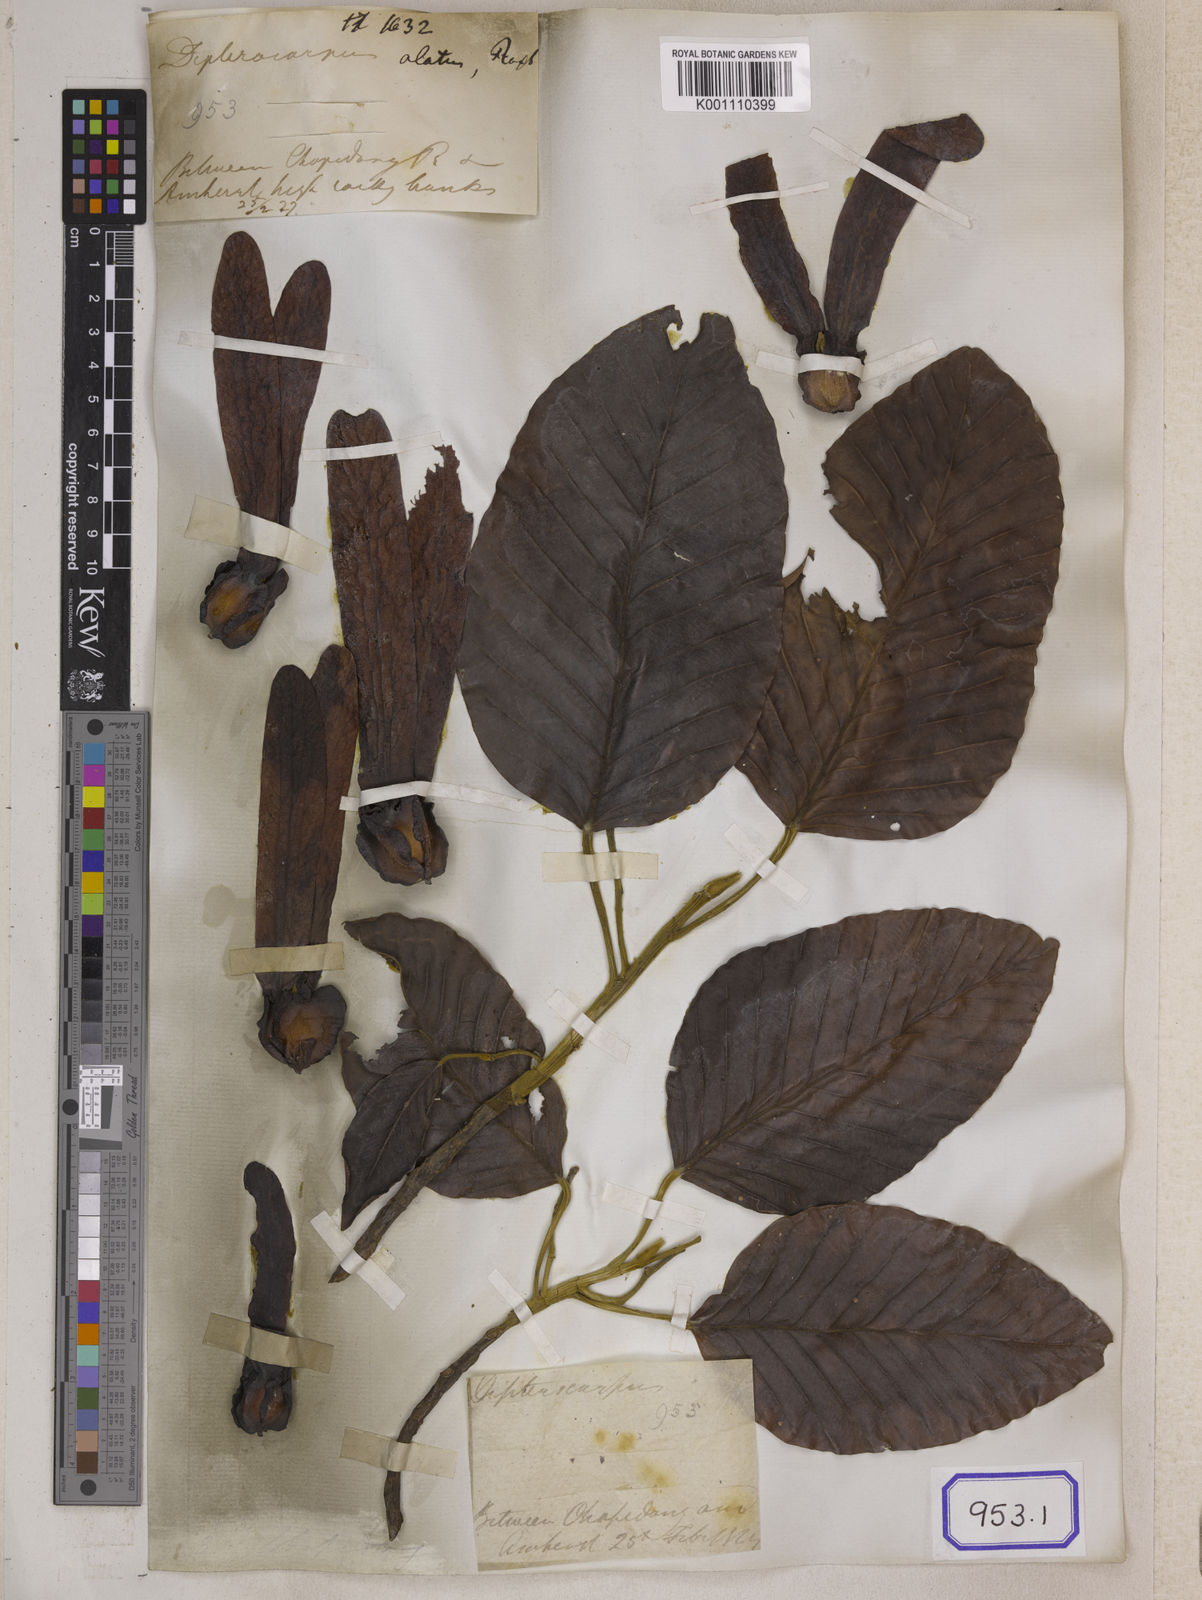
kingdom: Plantae
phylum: Tracheophyta
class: Magnoliopsida
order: Malvales
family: Dipterocarpaceae
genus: Dipterocarpus
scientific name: Dipterocarpus
